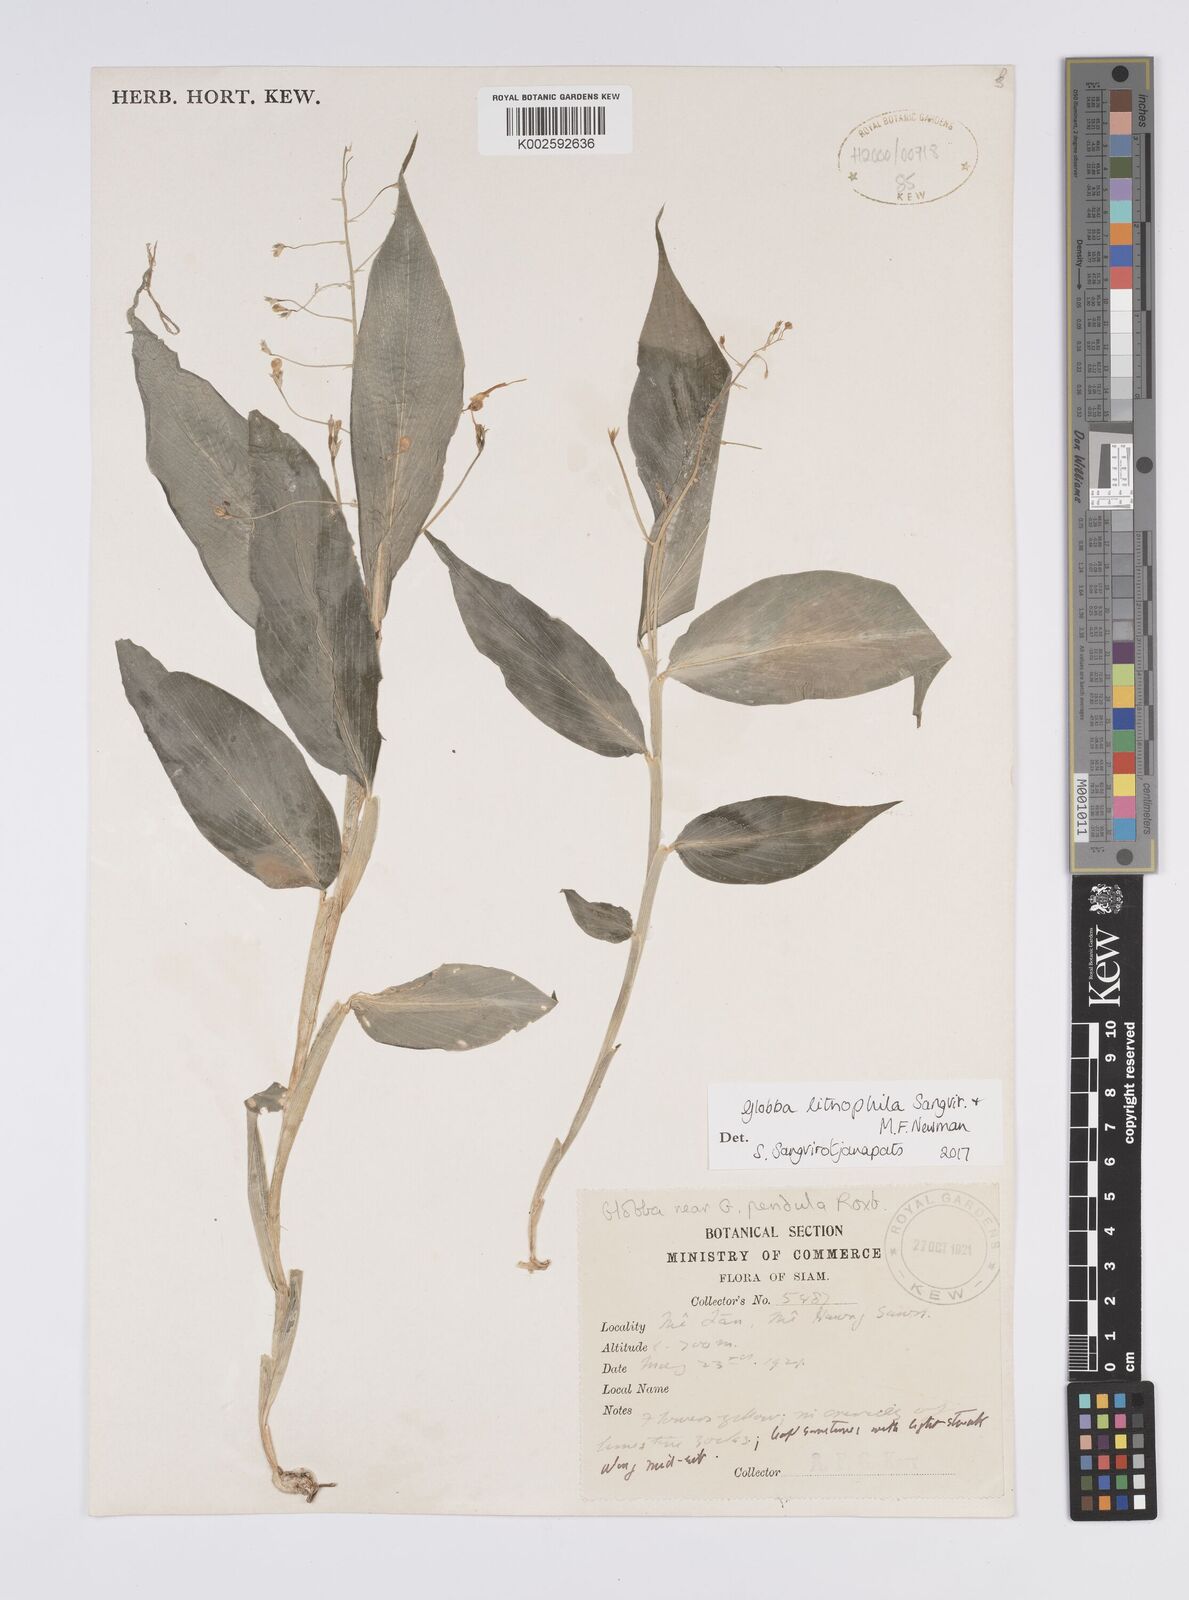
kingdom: Plantae
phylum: Tracheophyta
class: Liliopsida
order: Zingiberales
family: Zingiberaceae
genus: Globba
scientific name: Globba lithophila
